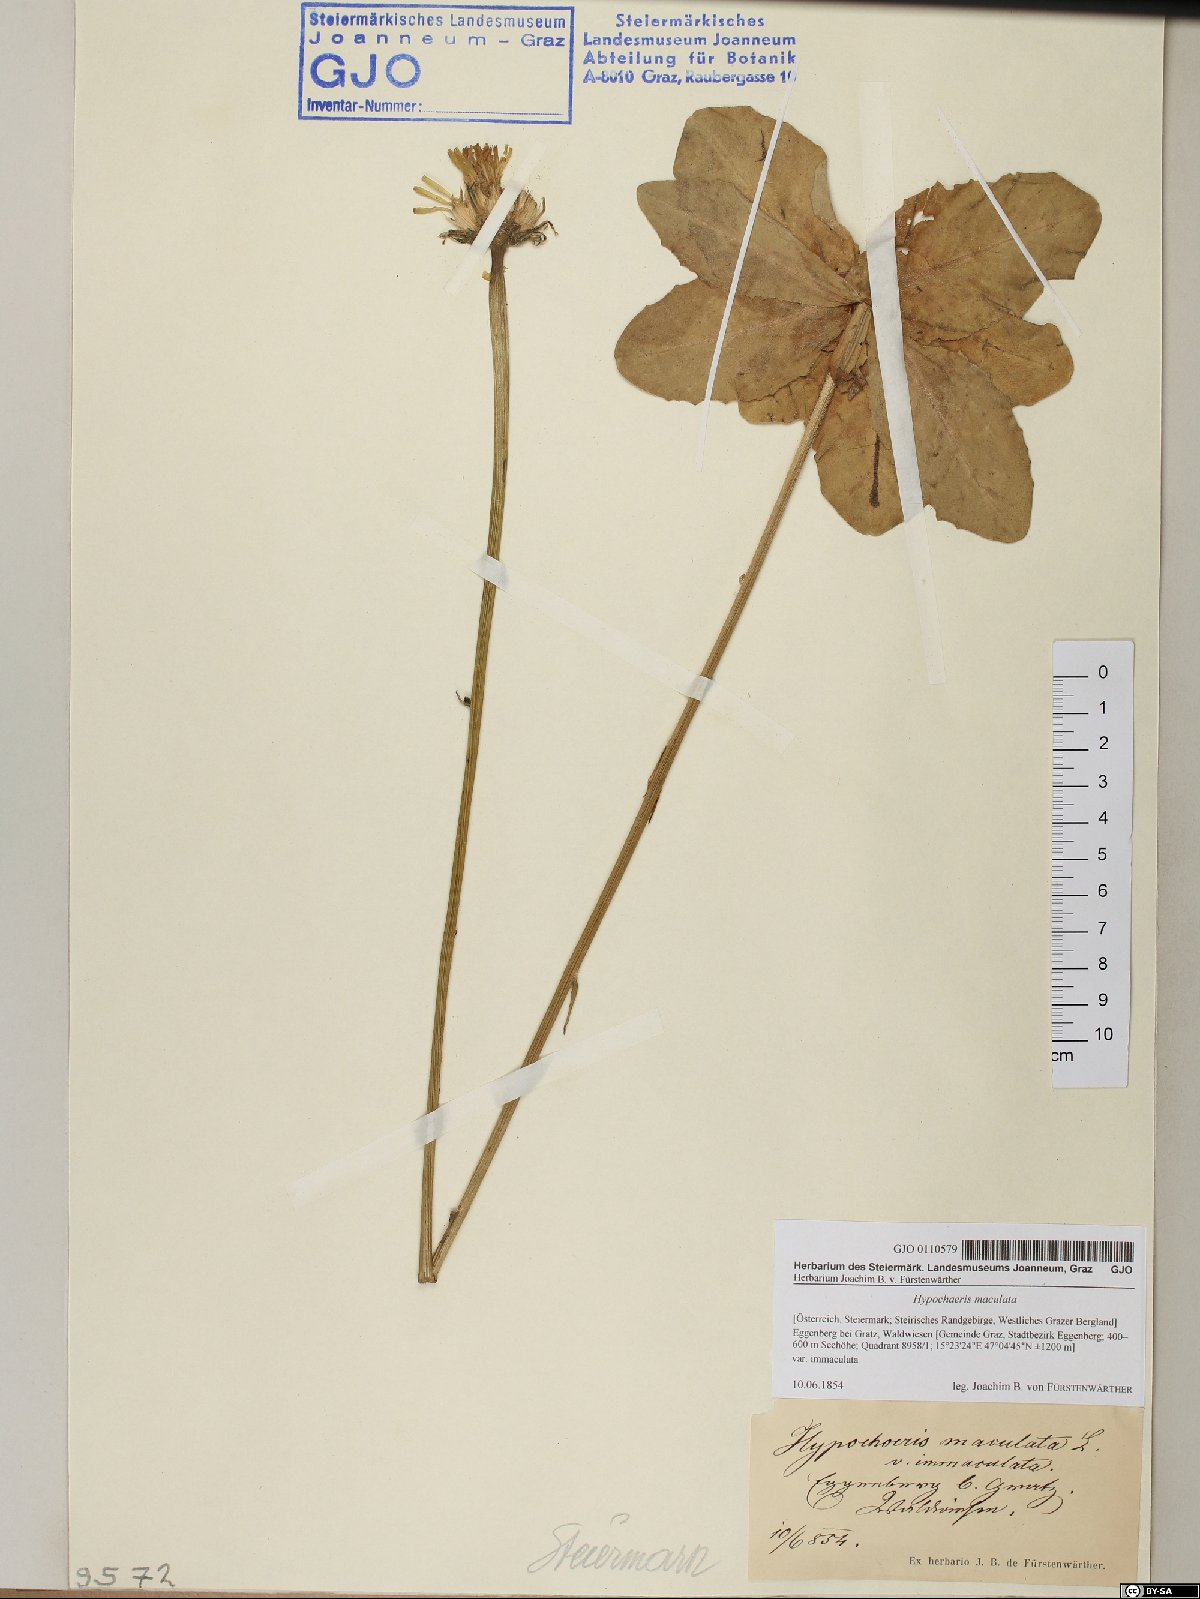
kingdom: Plantae
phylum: Tracheophyta
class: Magnoliopsida
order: Asterales
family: Asteraceae
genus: Trommsdorffia
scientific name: Trommsdorffia maculata
